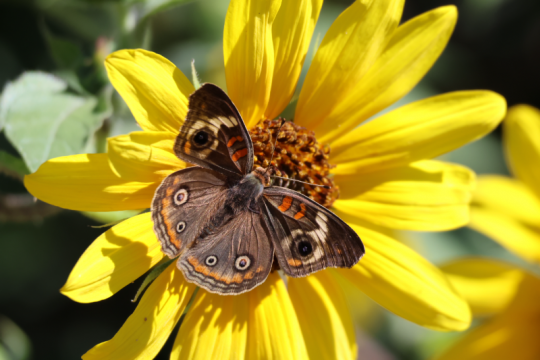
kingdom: Animalia
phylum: Arthropoda
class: Insecta
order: Lepidoptera
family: Nymphalidae
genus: Junonia
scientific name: Junonia coenia
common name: Common Buckeye
